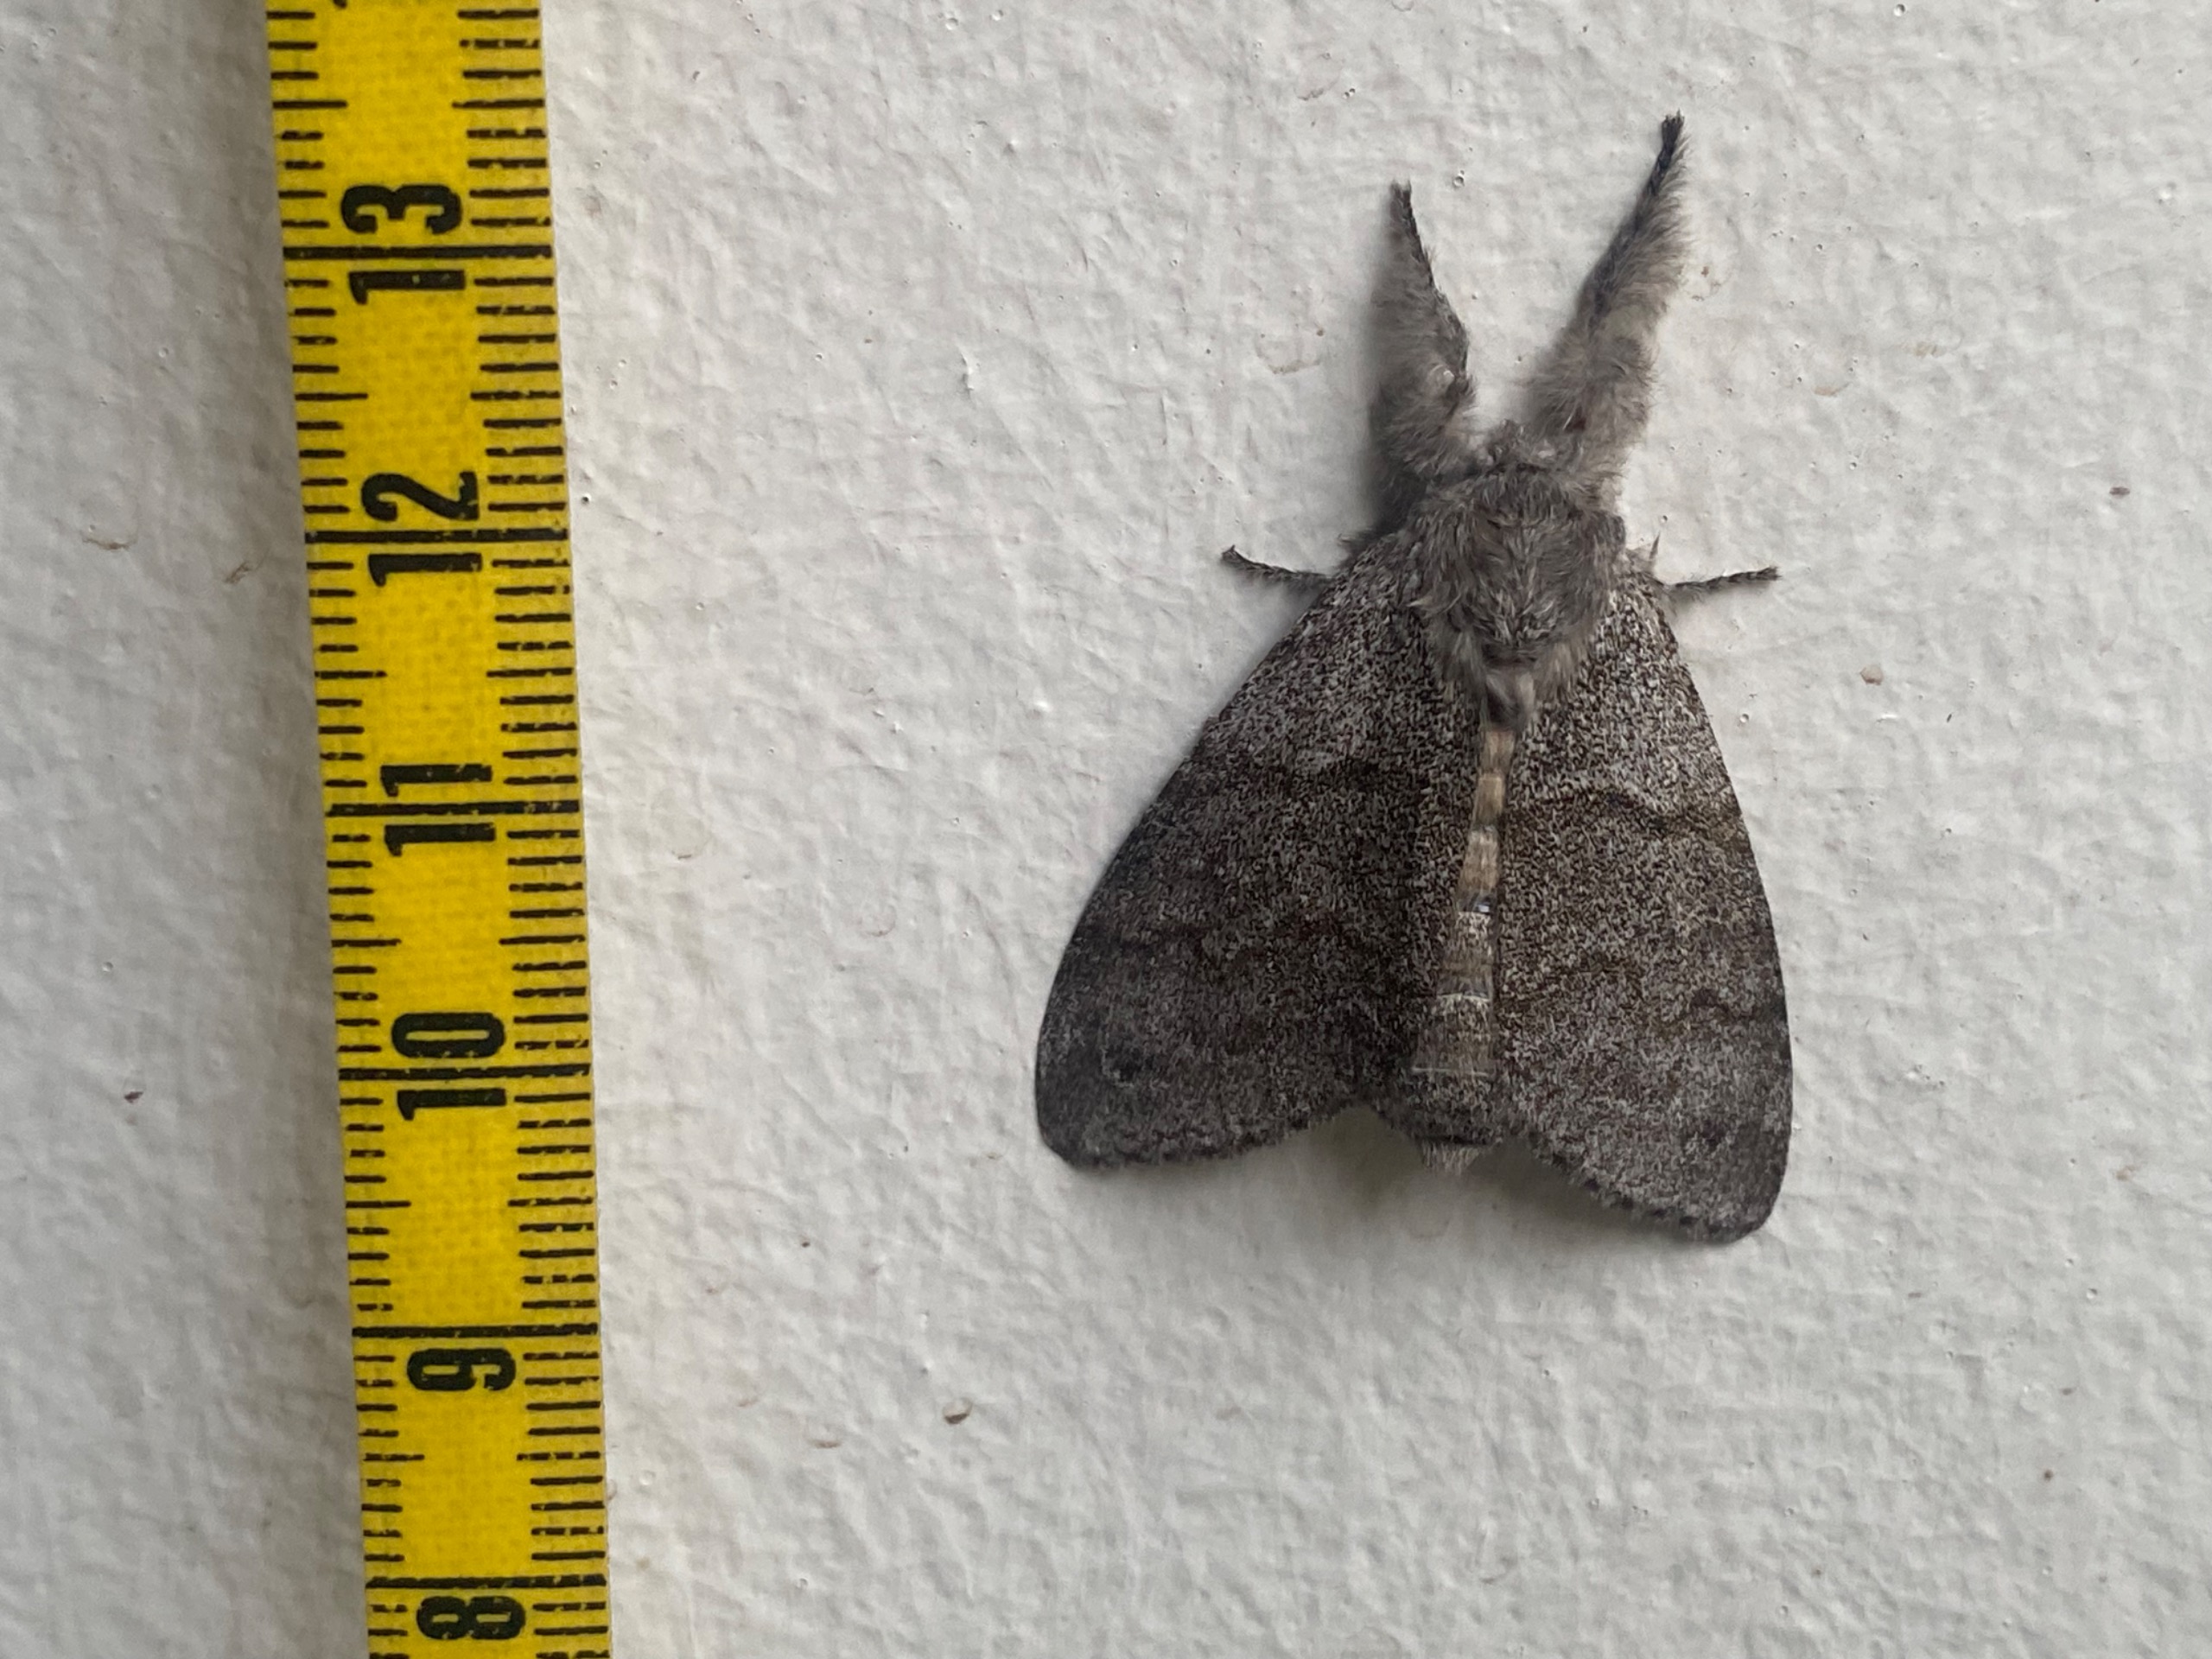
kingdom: Animalia
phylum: Arthropoda
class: Insecta
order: Lepidoptera
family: Erebidae
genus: Calliteara
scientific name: Calliteara pudibunda
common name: Bøgenonne
